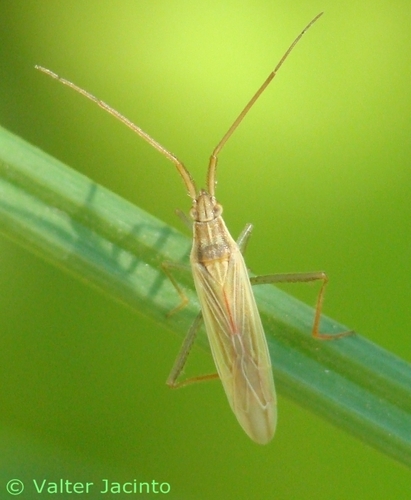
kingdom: Animalia
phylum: Arthropoda
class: Insecta
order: Hemiptera
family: Miridae
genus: Stenodema
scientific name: Stenodema laevigata
